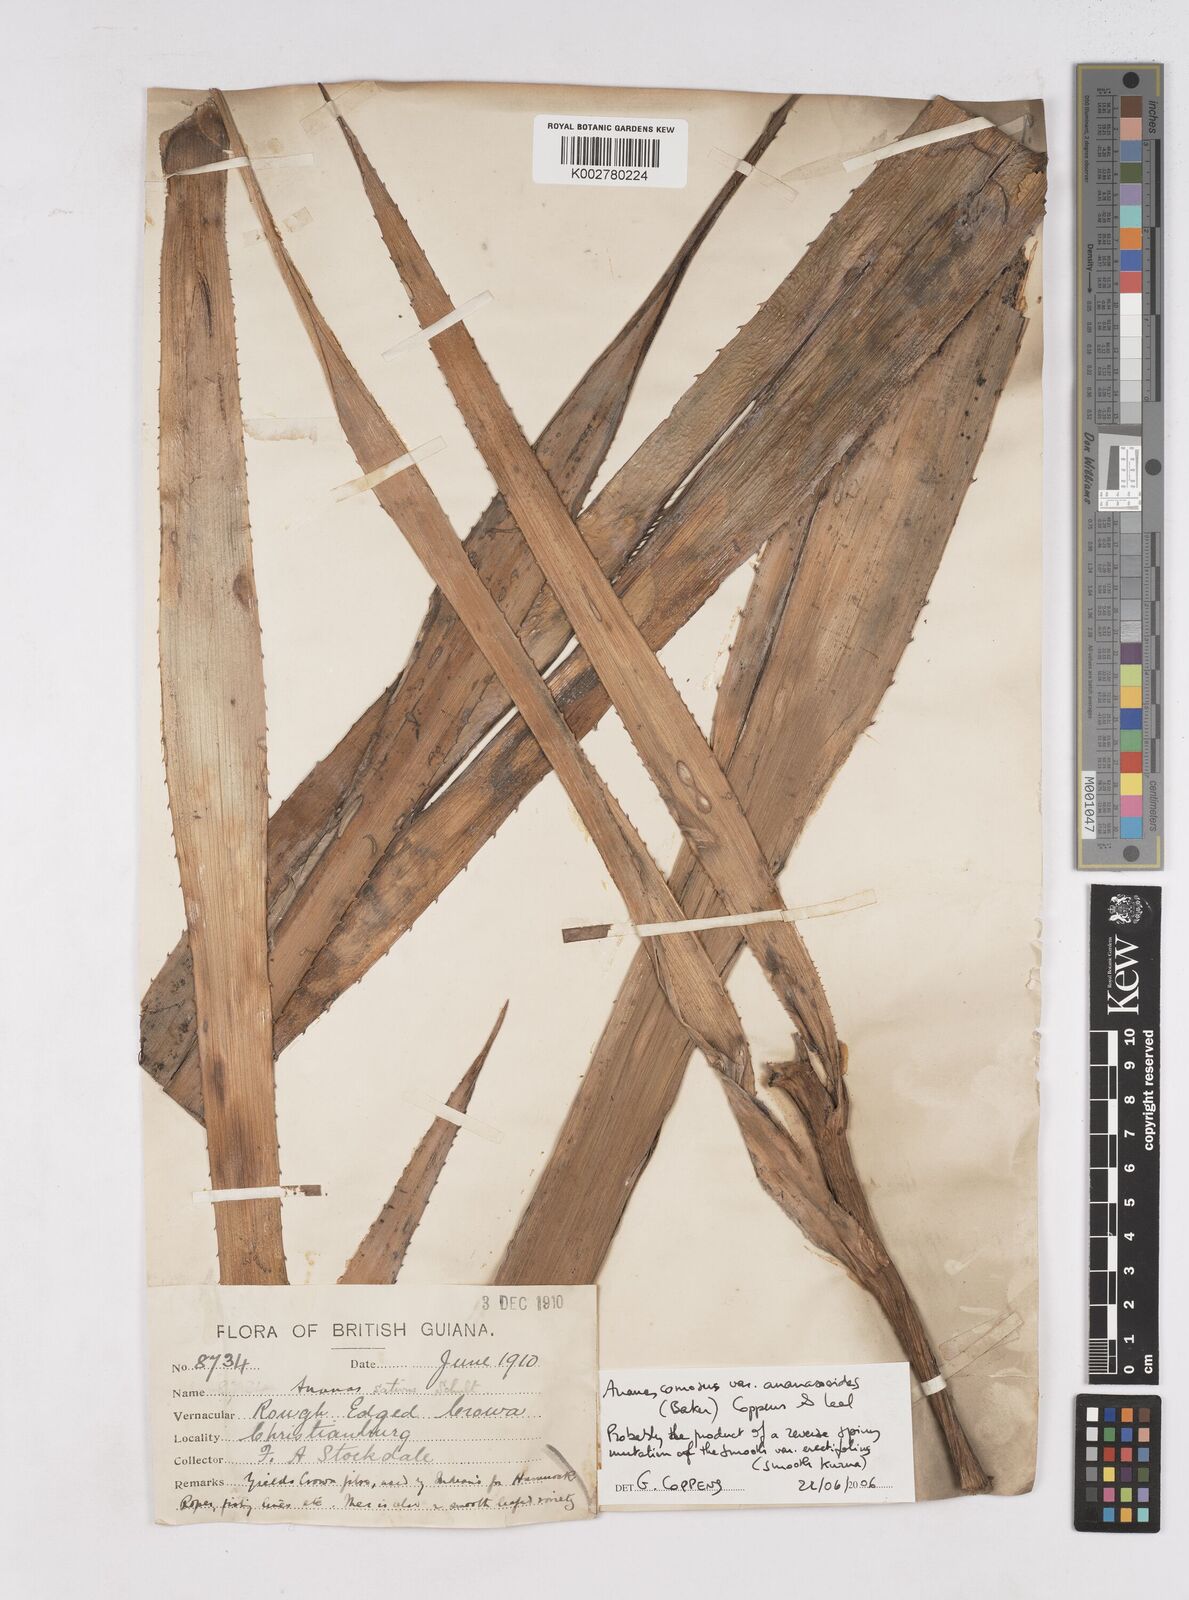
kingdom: Plantae
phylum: Tracheophyta
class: Liliopsida
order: Poales
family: Bromeliaceae
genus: Ananas
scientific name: Ananas comosus
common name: Pineapple
